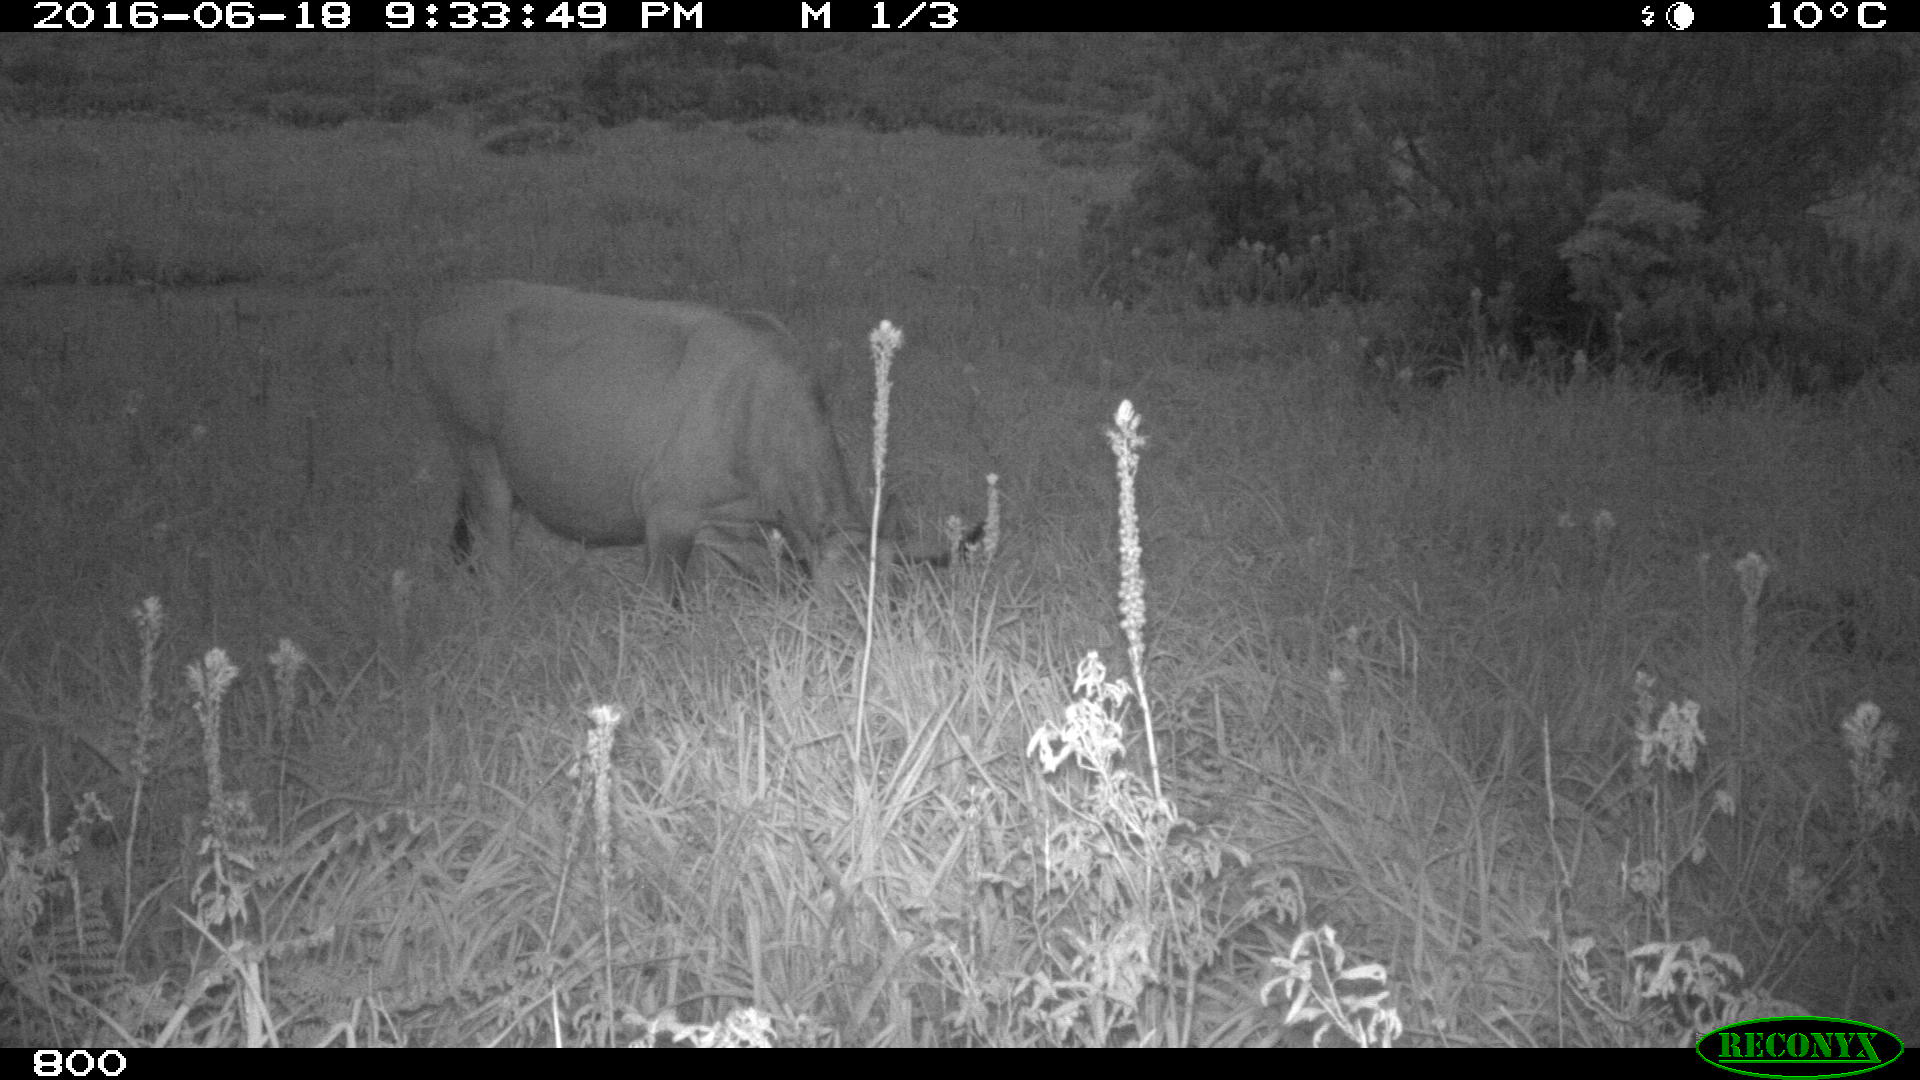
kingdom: Animalia
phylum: Chordata
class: Mammalia
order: Artiodactyla
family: Bovidae
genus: Bos
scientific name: Bos taurus
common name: Domesticated cattle
